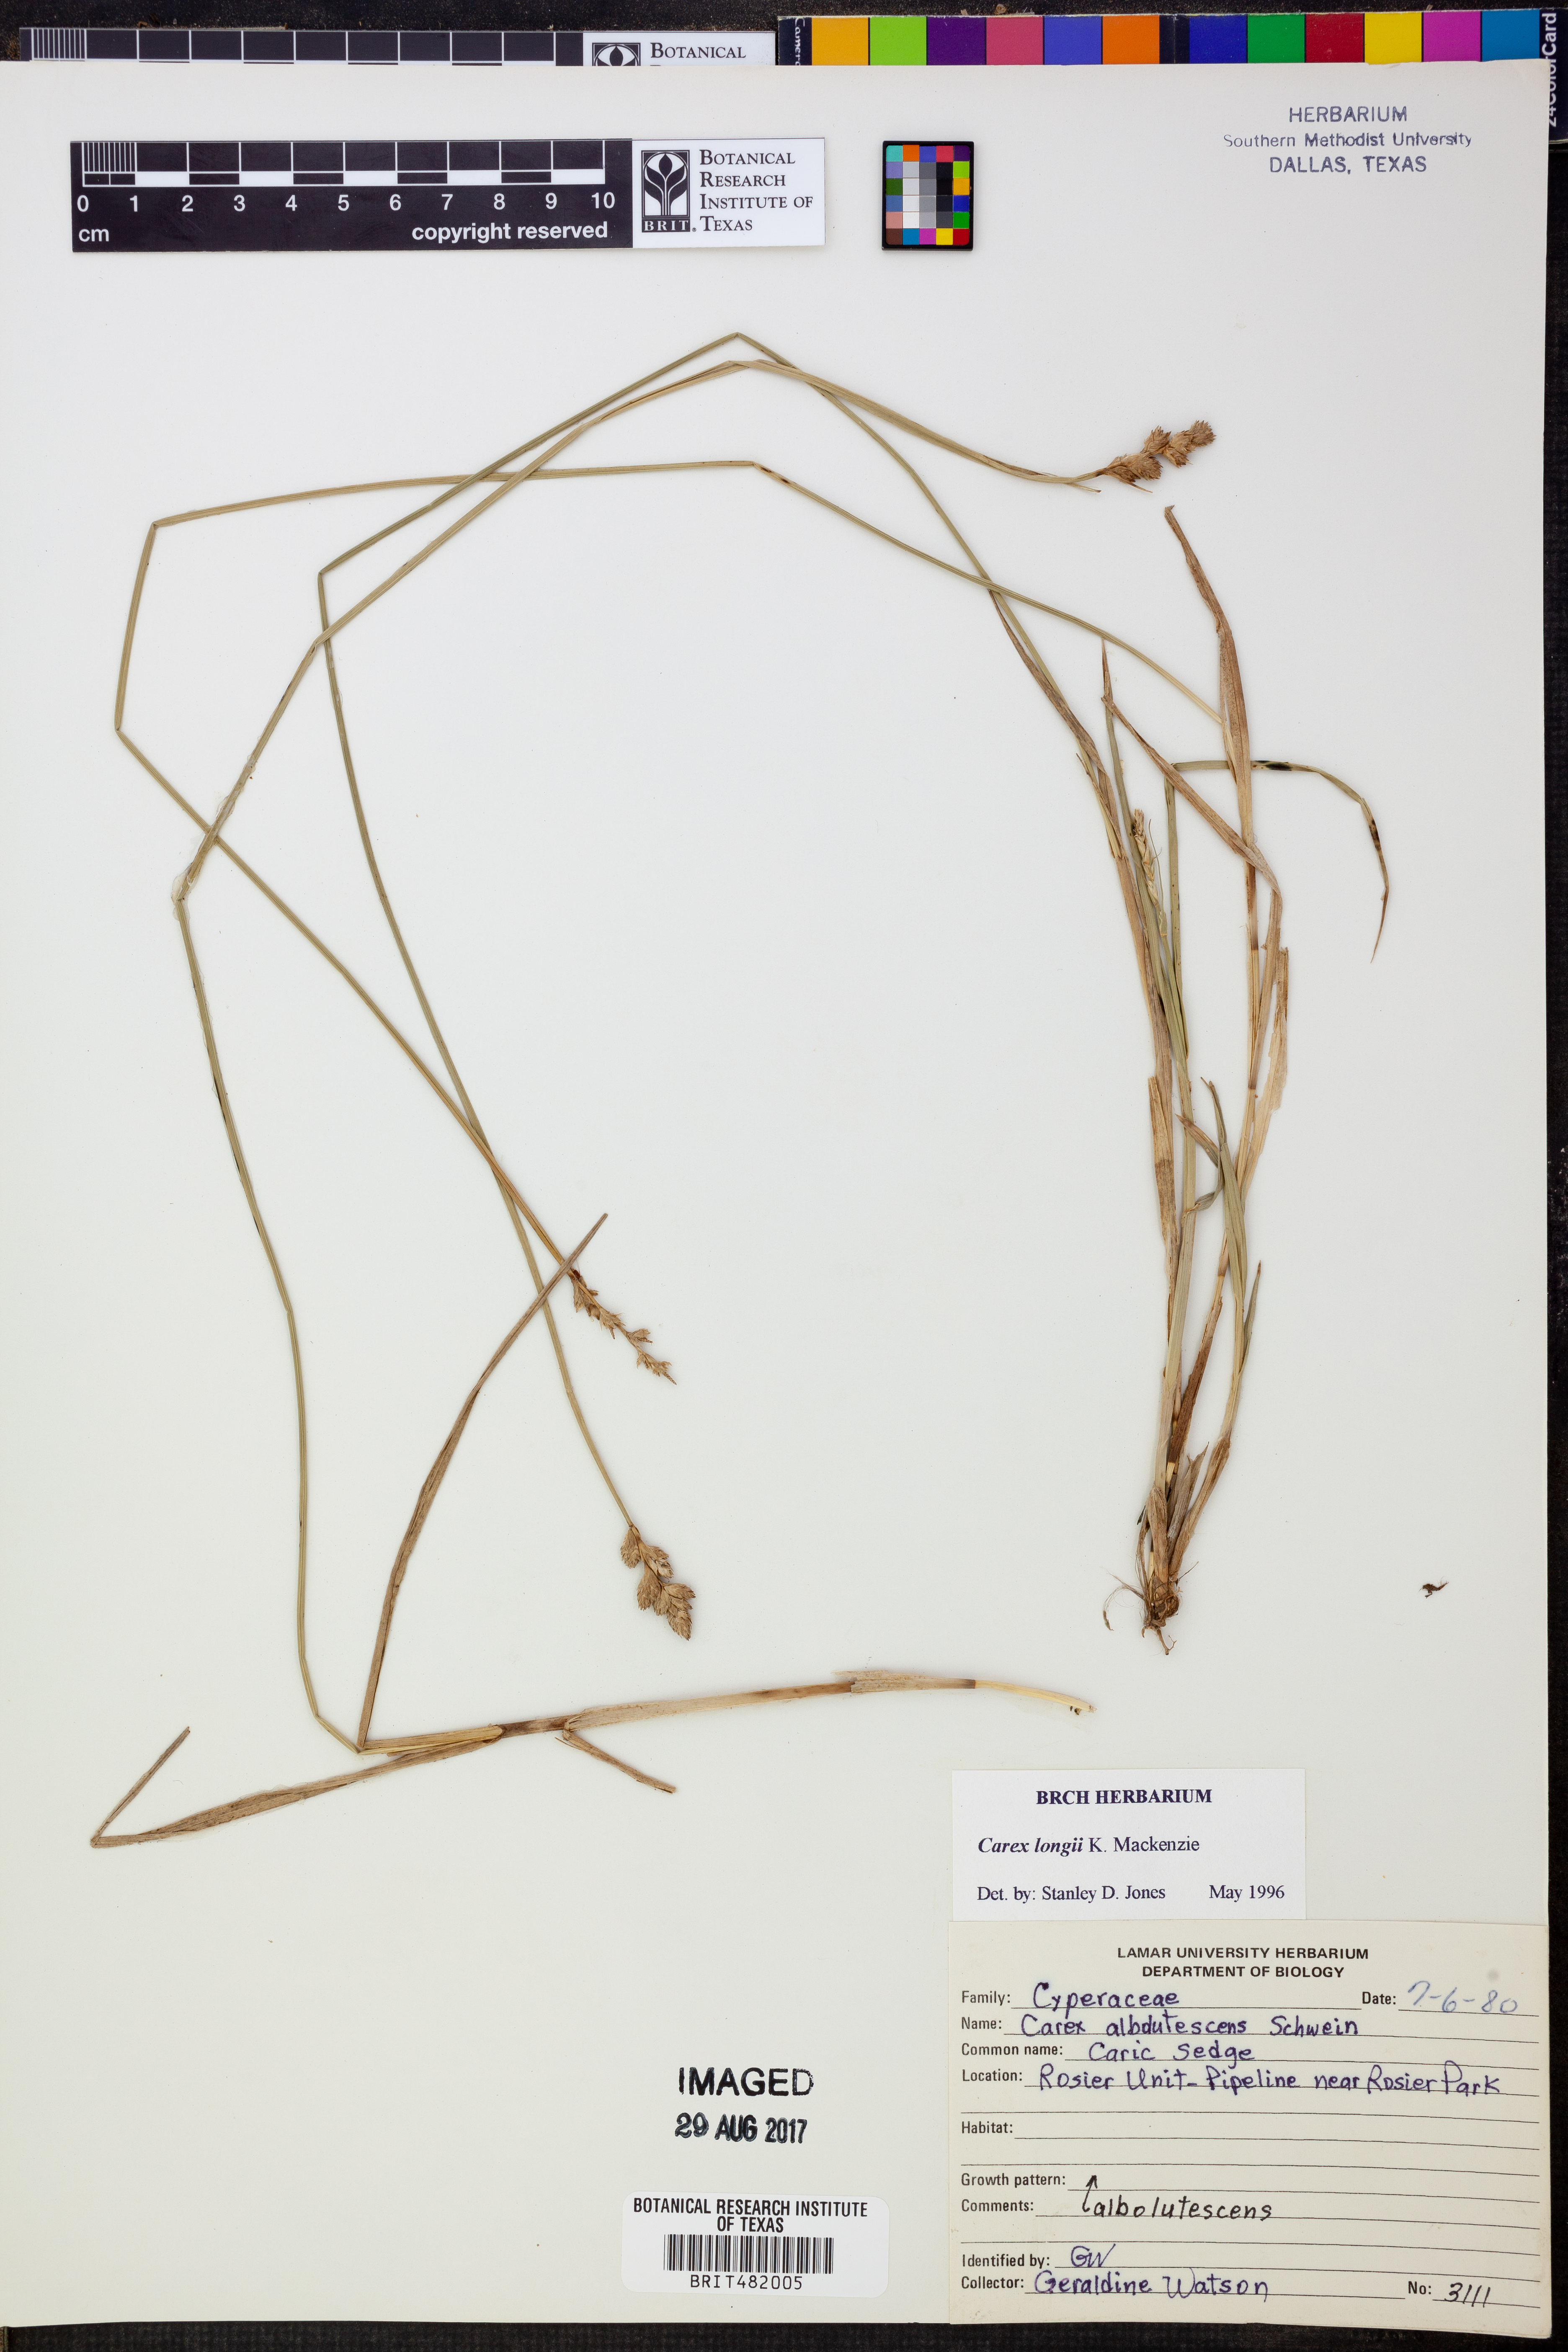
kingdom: Plantae
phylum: Tracheophyta
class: Liliopsida
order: Poales
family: Cyperaceae
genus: Carex
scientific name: Carex longii
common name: Long's sedge
